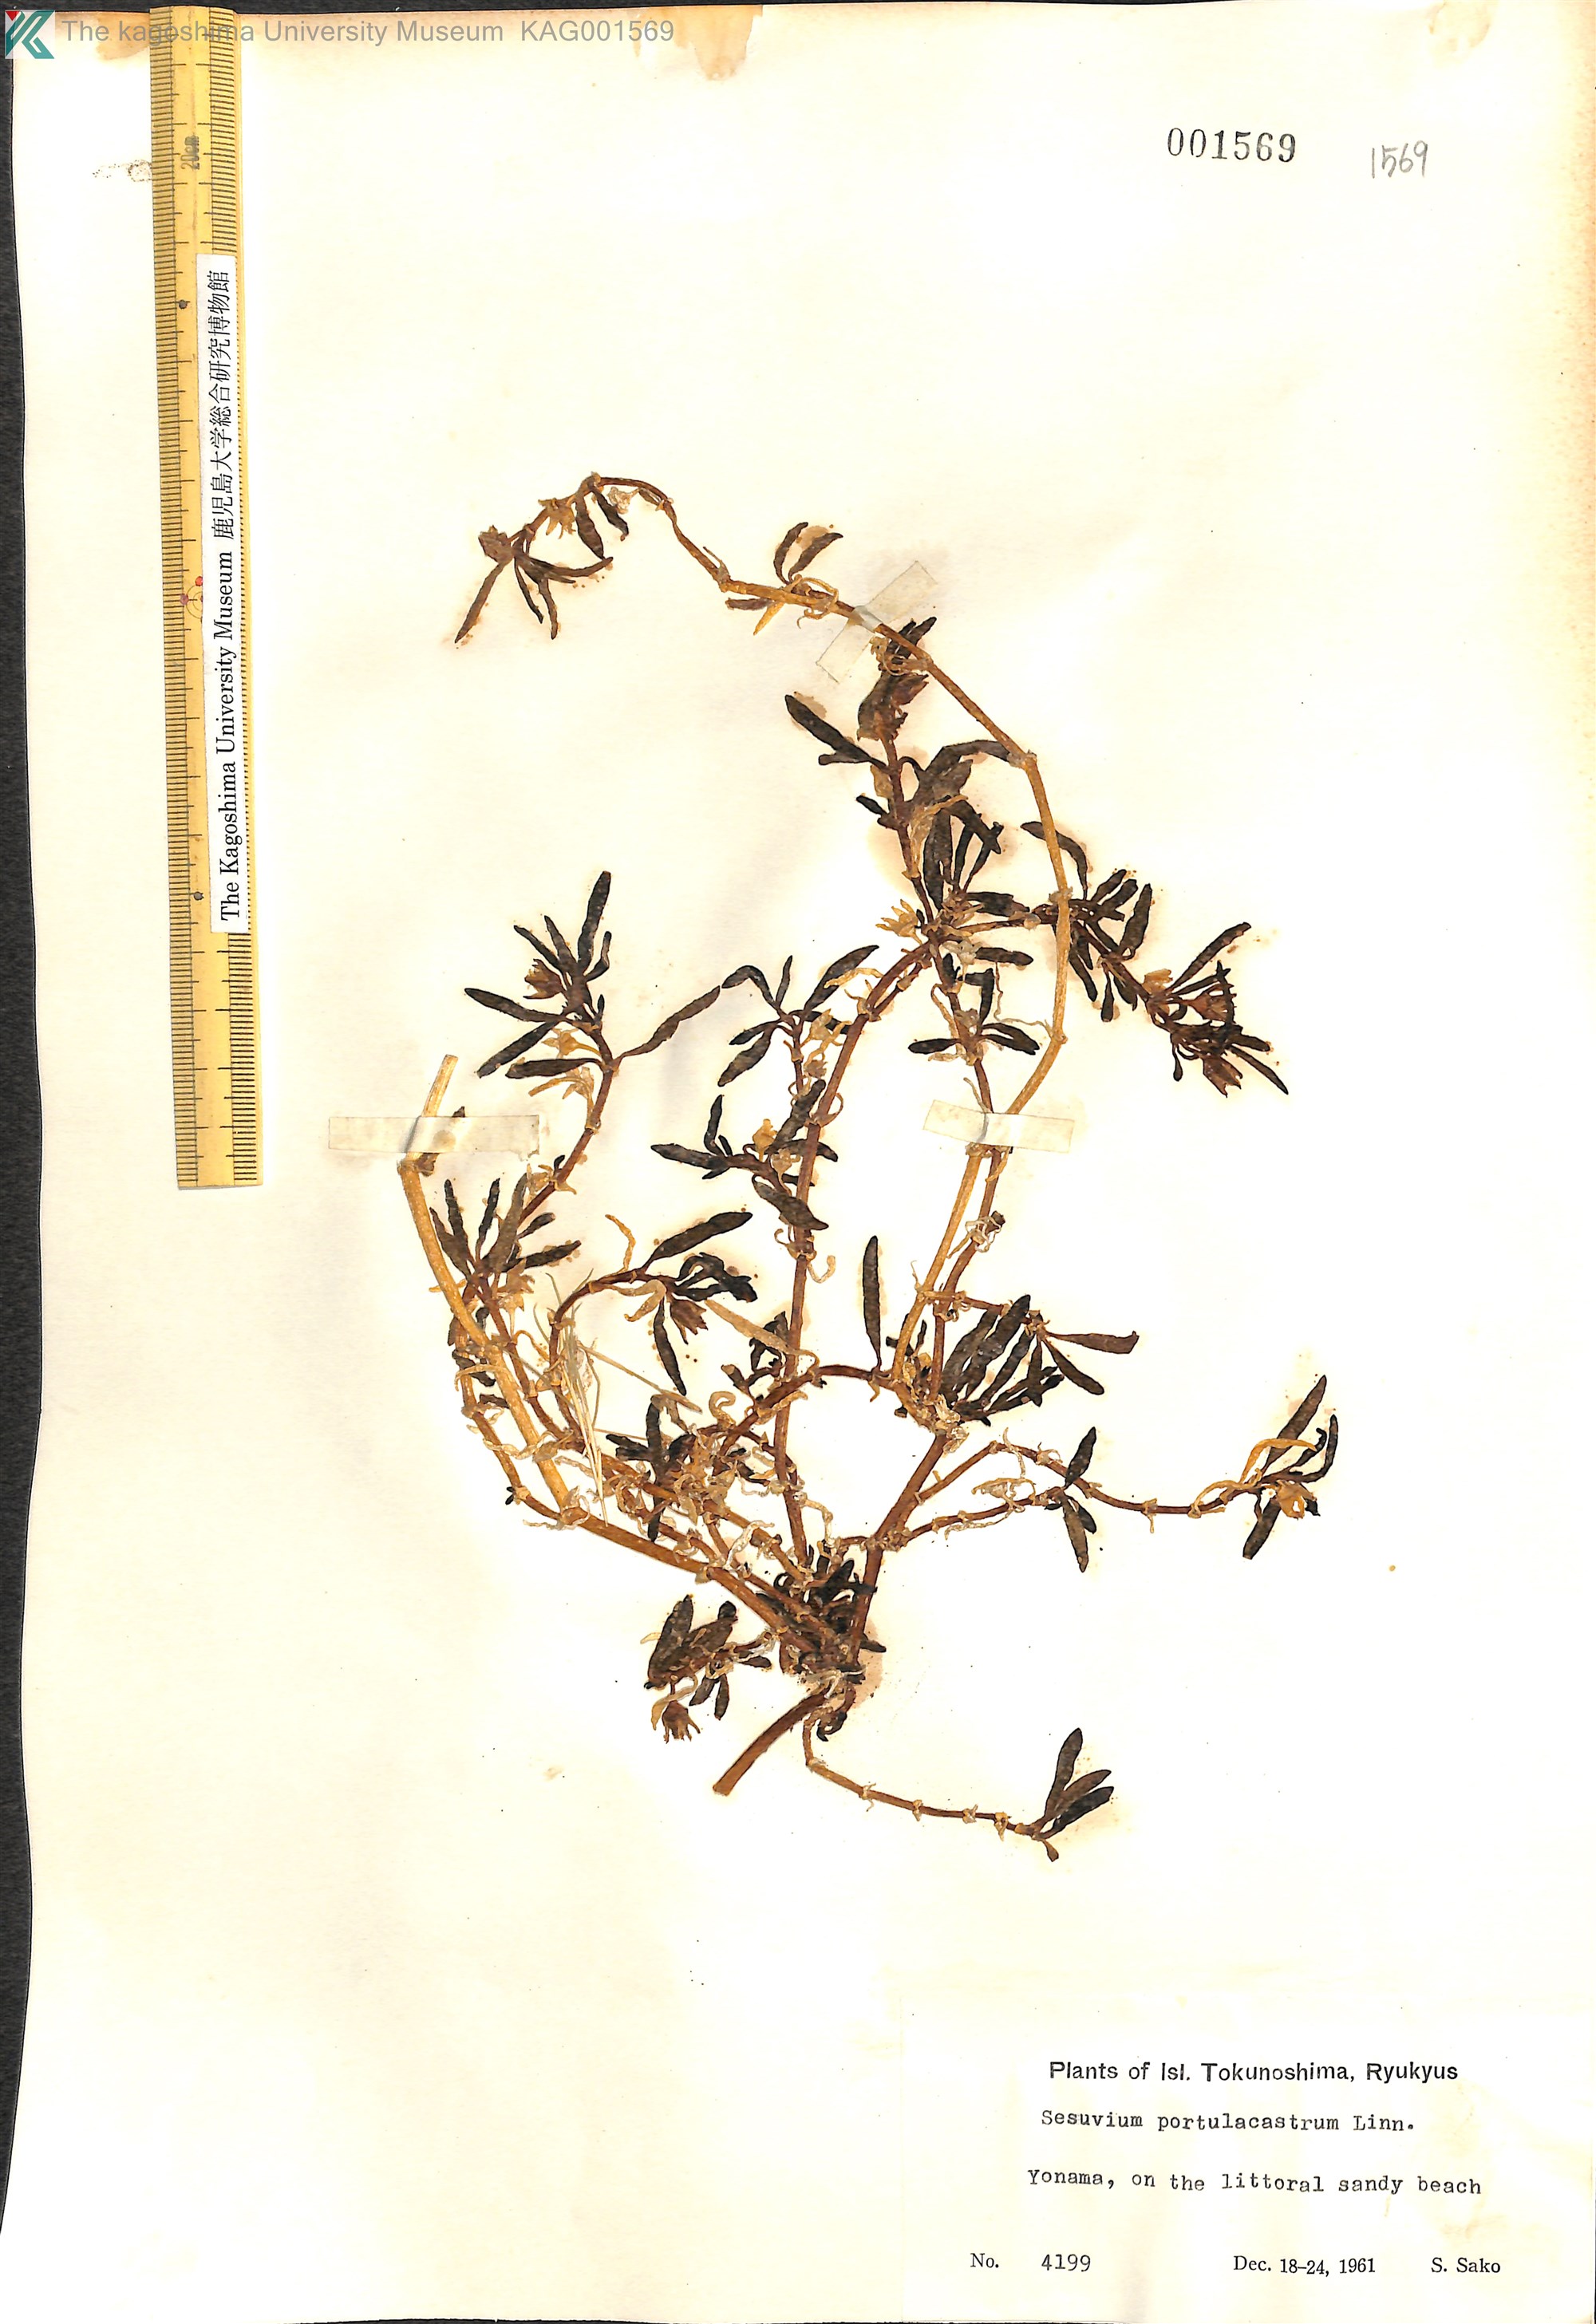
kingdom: Plantae
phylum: Tracheophyta
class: Magnoliopsida
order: Caryophyllales
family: Aizoaceae
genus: Sesuvium
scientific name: Sesuvium portulacastrum
